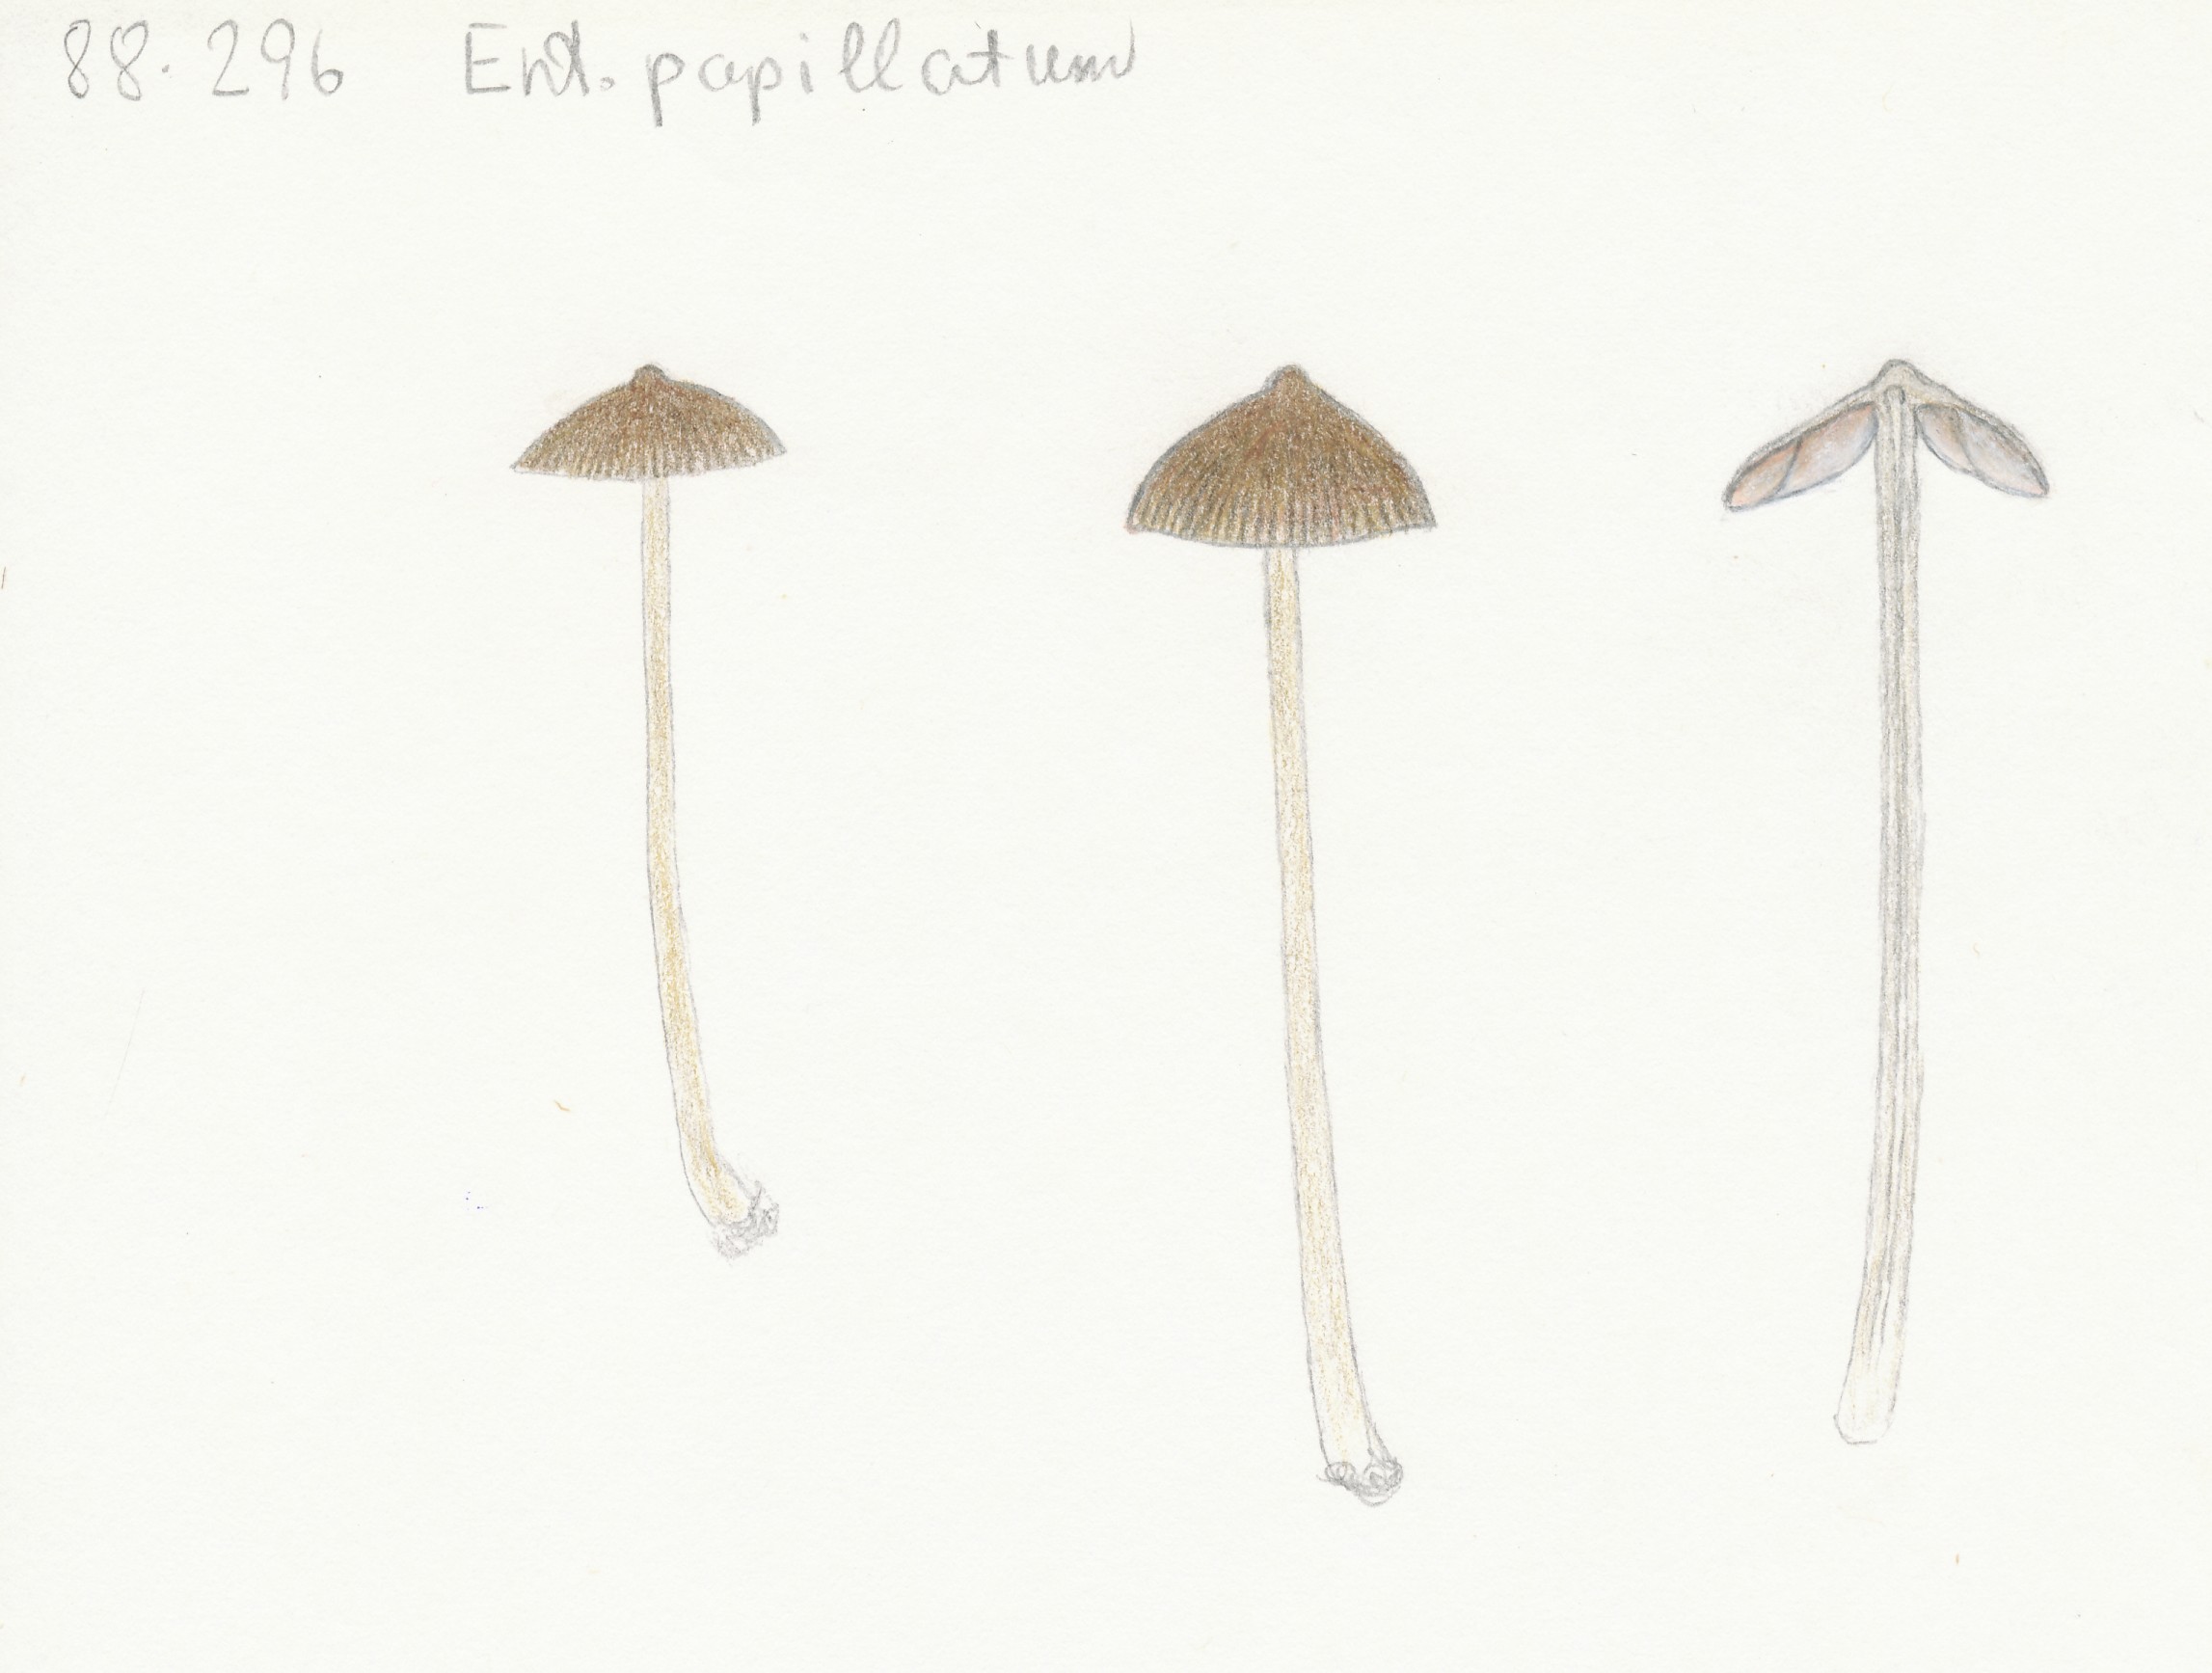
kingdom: Fungi
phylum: Basidiomycota
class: Agaricomycetes
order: Agaricales
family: Entolomataceae
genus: Entoloma
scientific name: Entoloma clandestinum
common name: tykbladet rødblad
